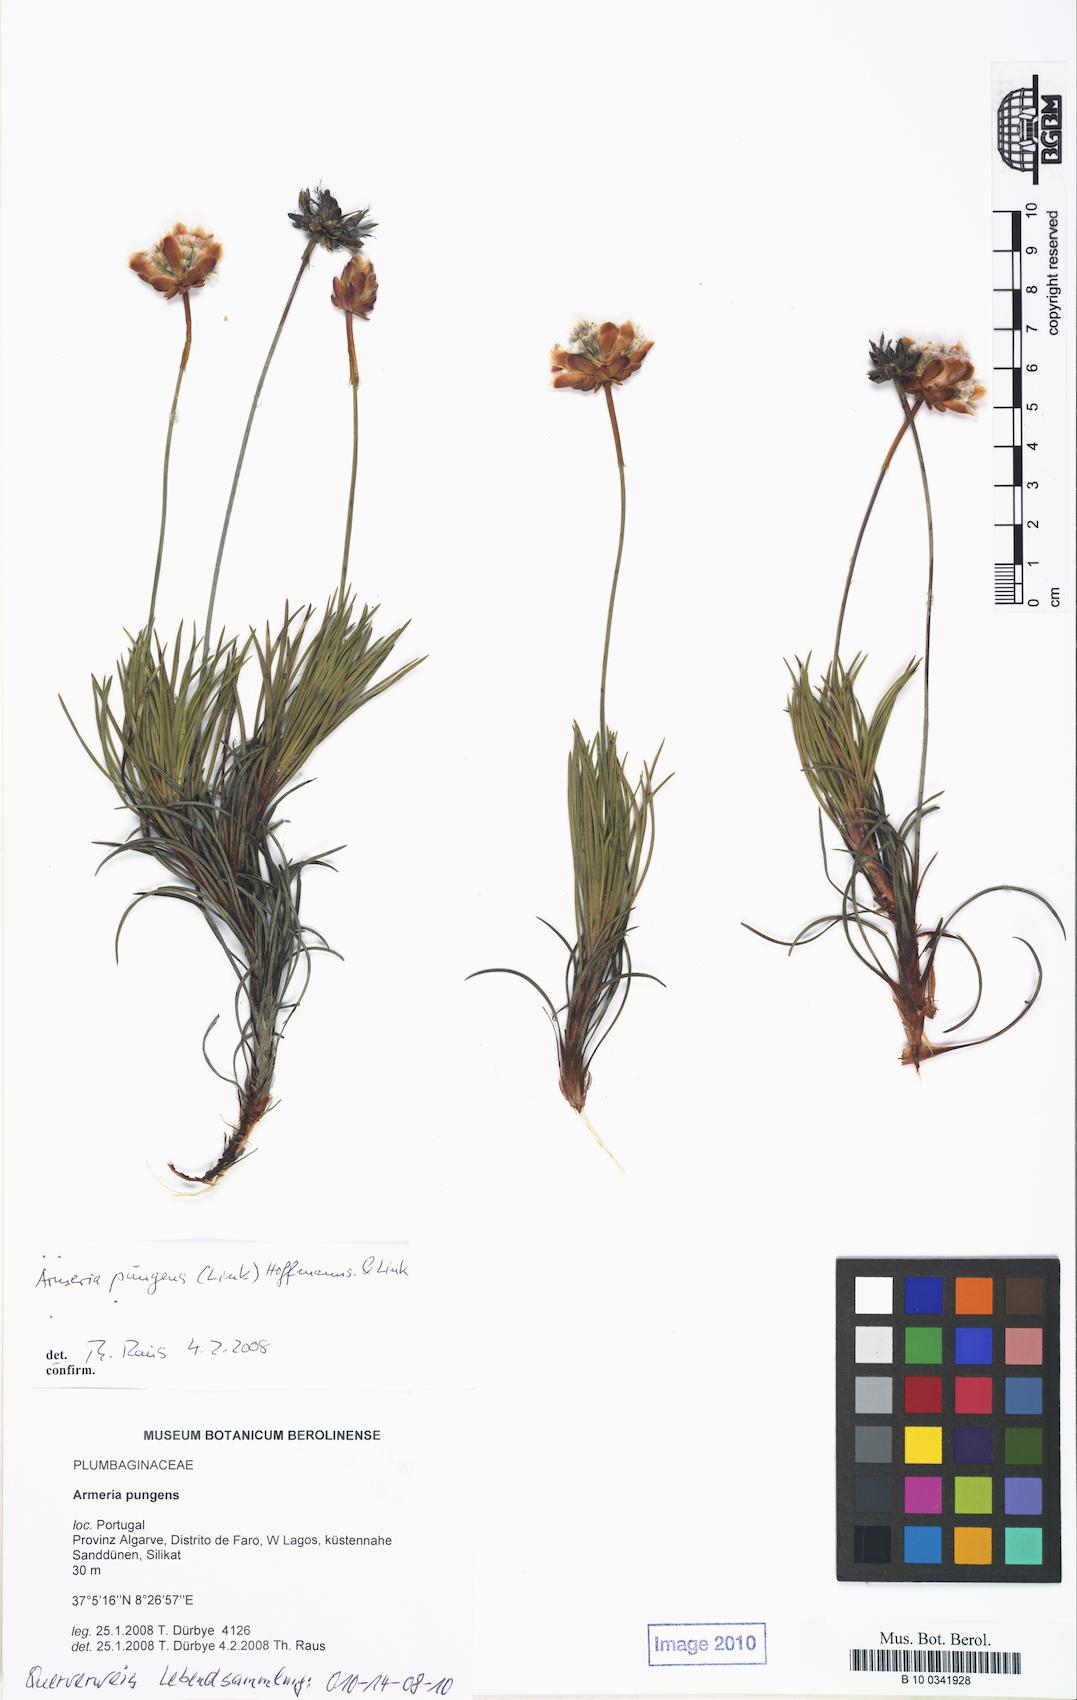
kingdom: Plantae
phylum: Tracheophyta
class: Magnoliopsida
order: Caryophyllales
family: Plumbaginaceae
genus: Armeria
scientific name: Armeria pungens
